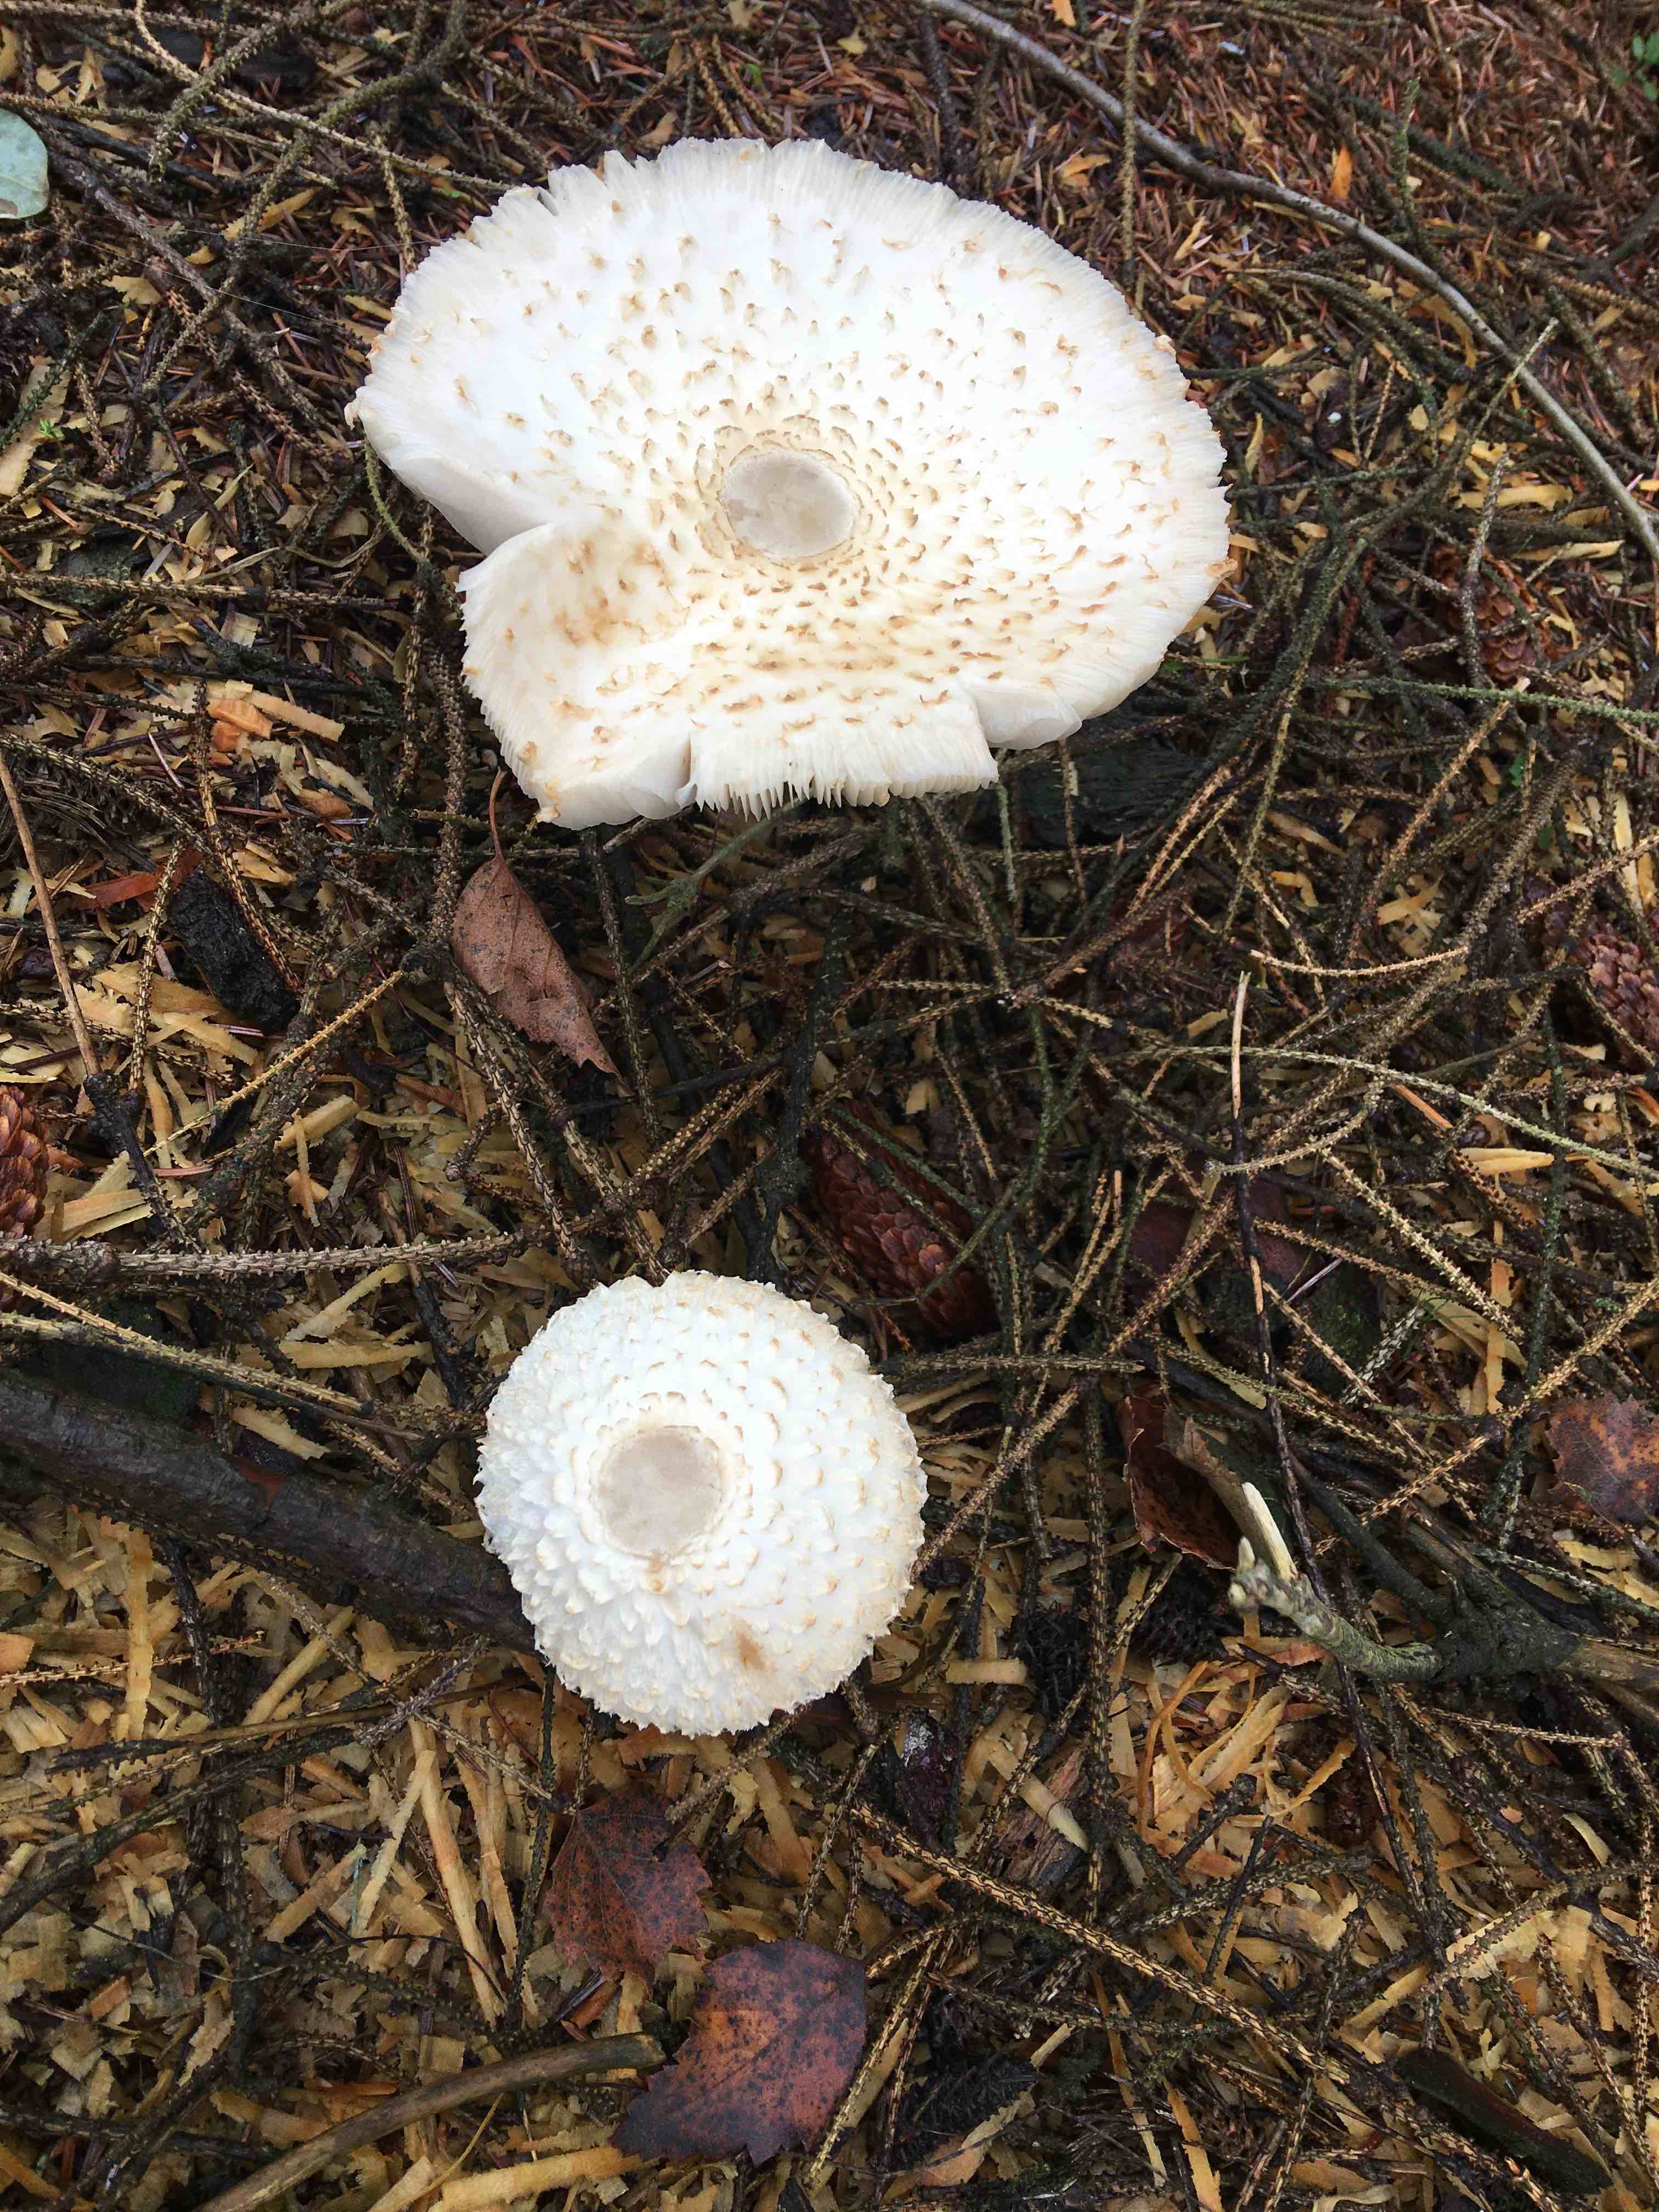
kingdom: Fungi
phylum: Basidiomycota
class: Agaricomycetes
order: Agaricales
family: Agaricaceae
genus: Leucoagaricus
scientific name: Leucoagaricus nympharum
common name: gran-silkehat
